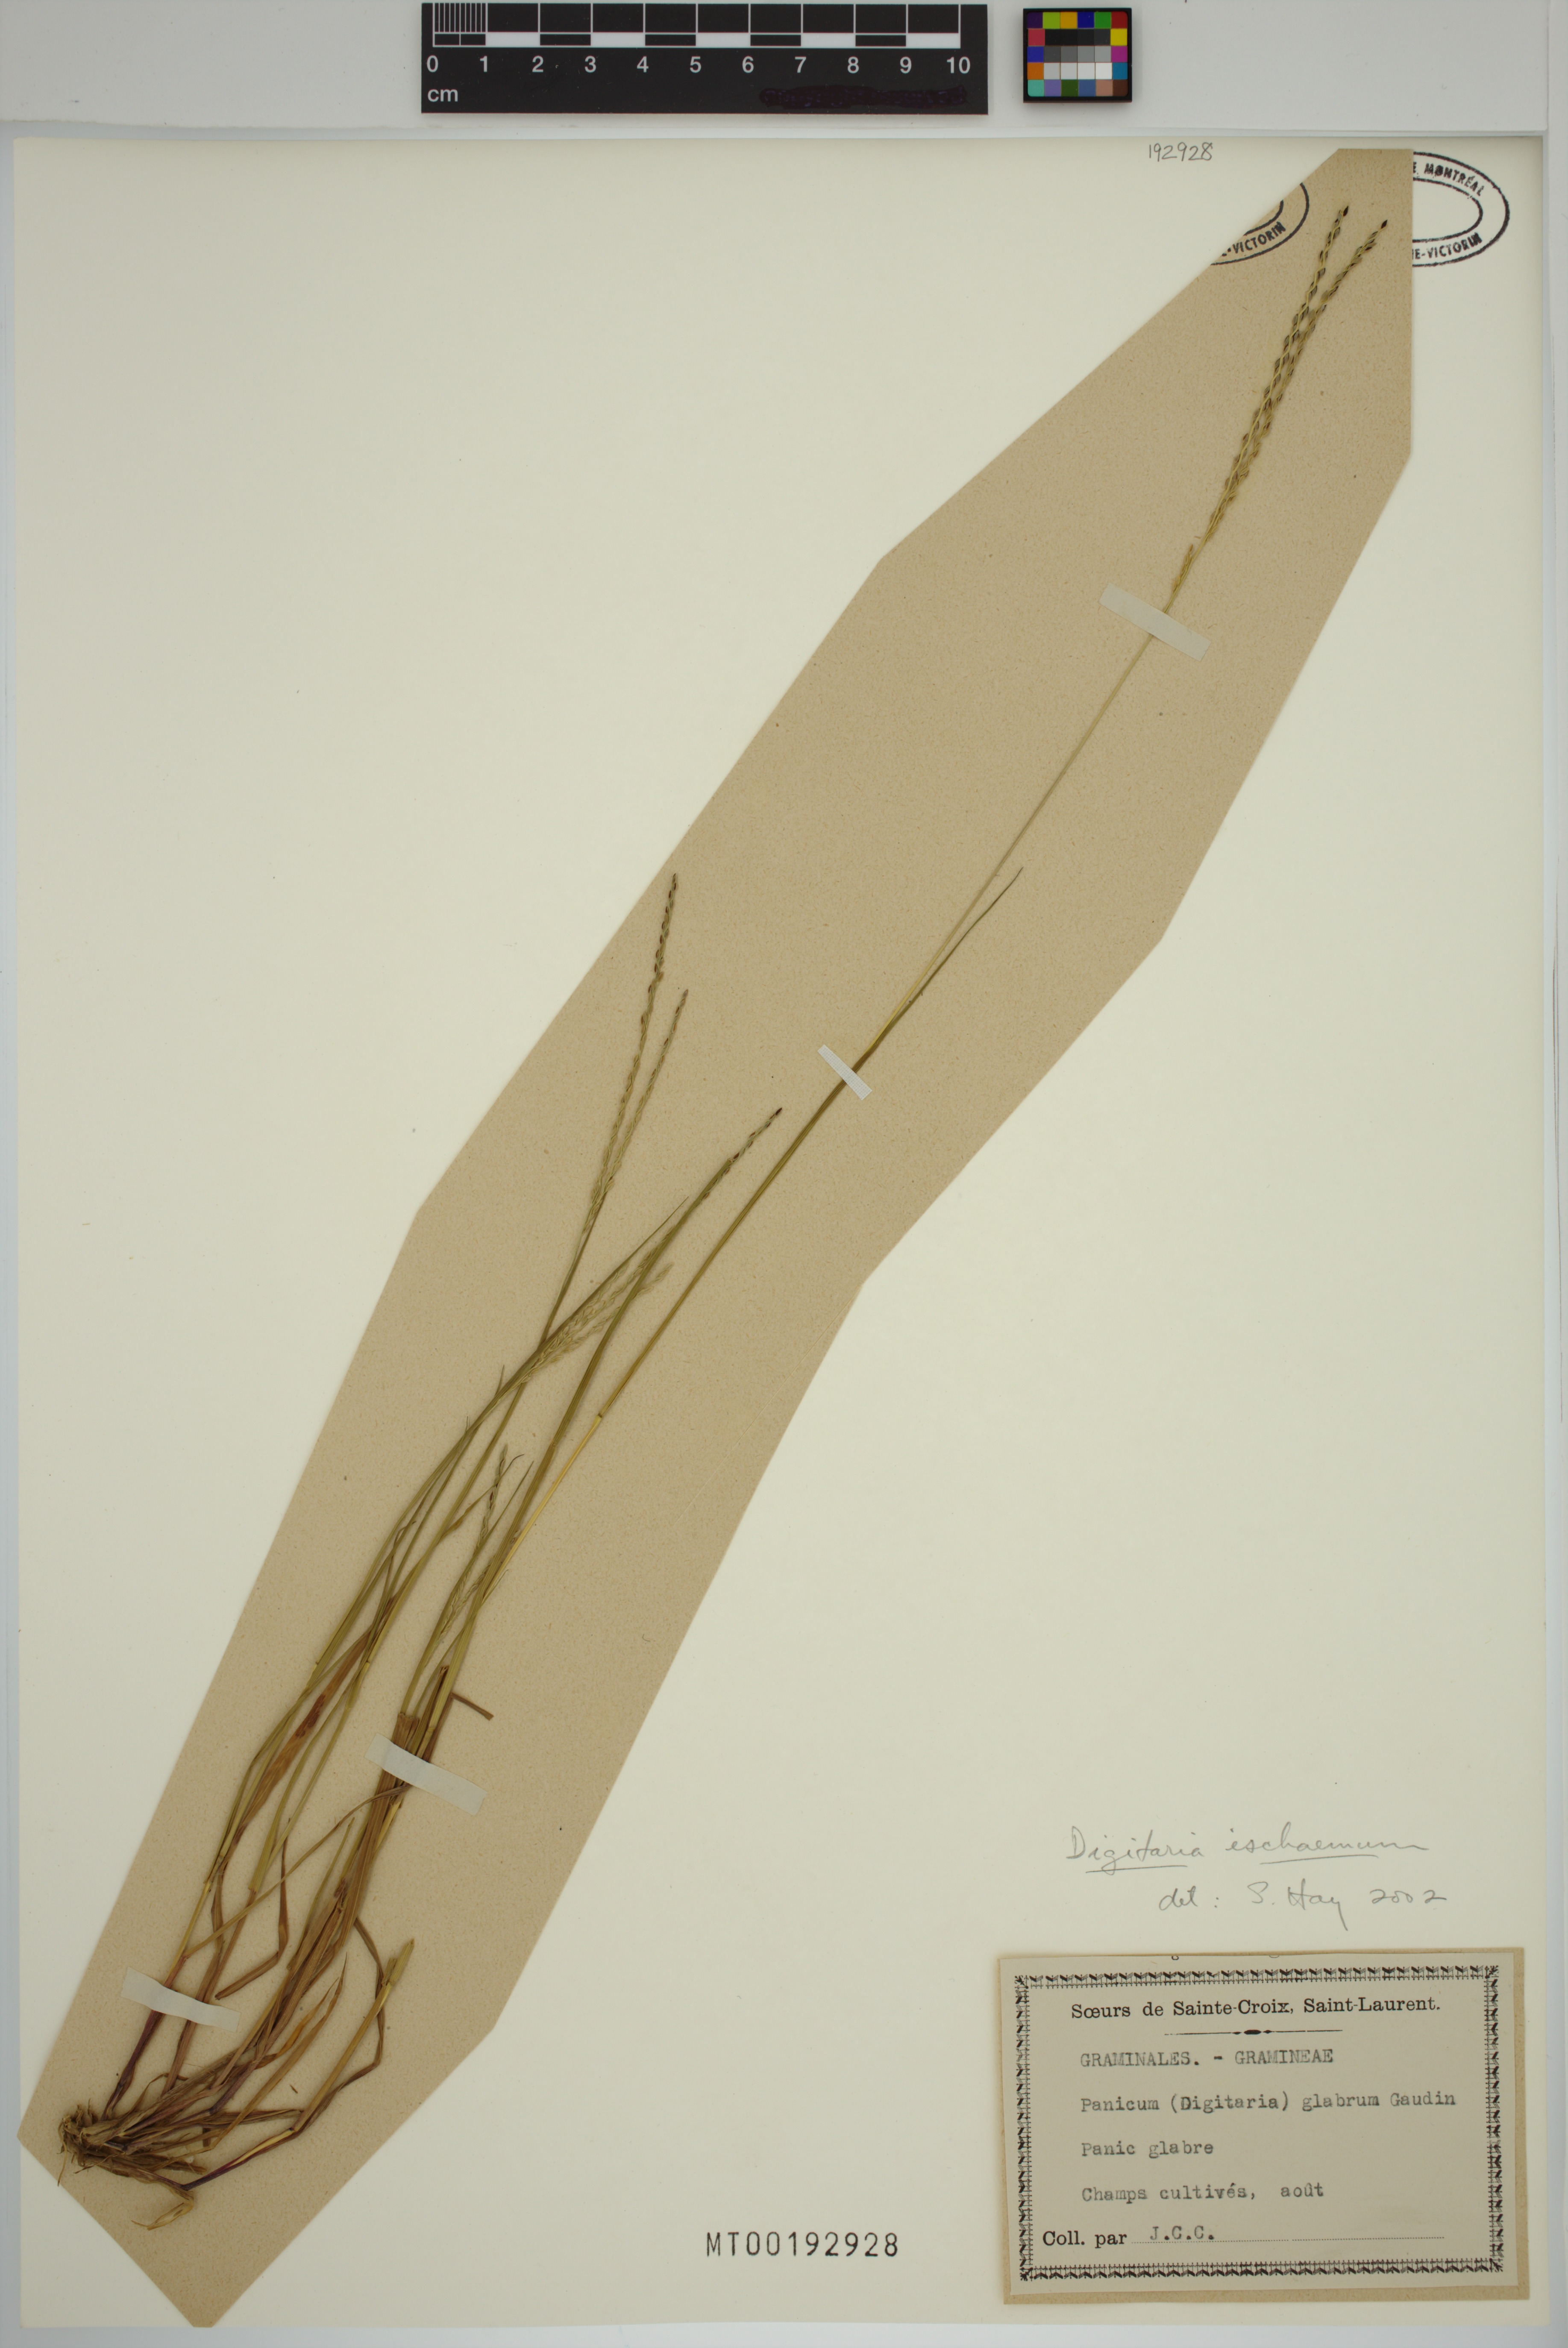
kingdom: Plantae
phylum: Tracheophyta
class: Liliopsida
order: Poales
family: Poaceae
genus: Digitaria
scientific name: Digitaria ischaemum
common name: Smooth crabgrass
